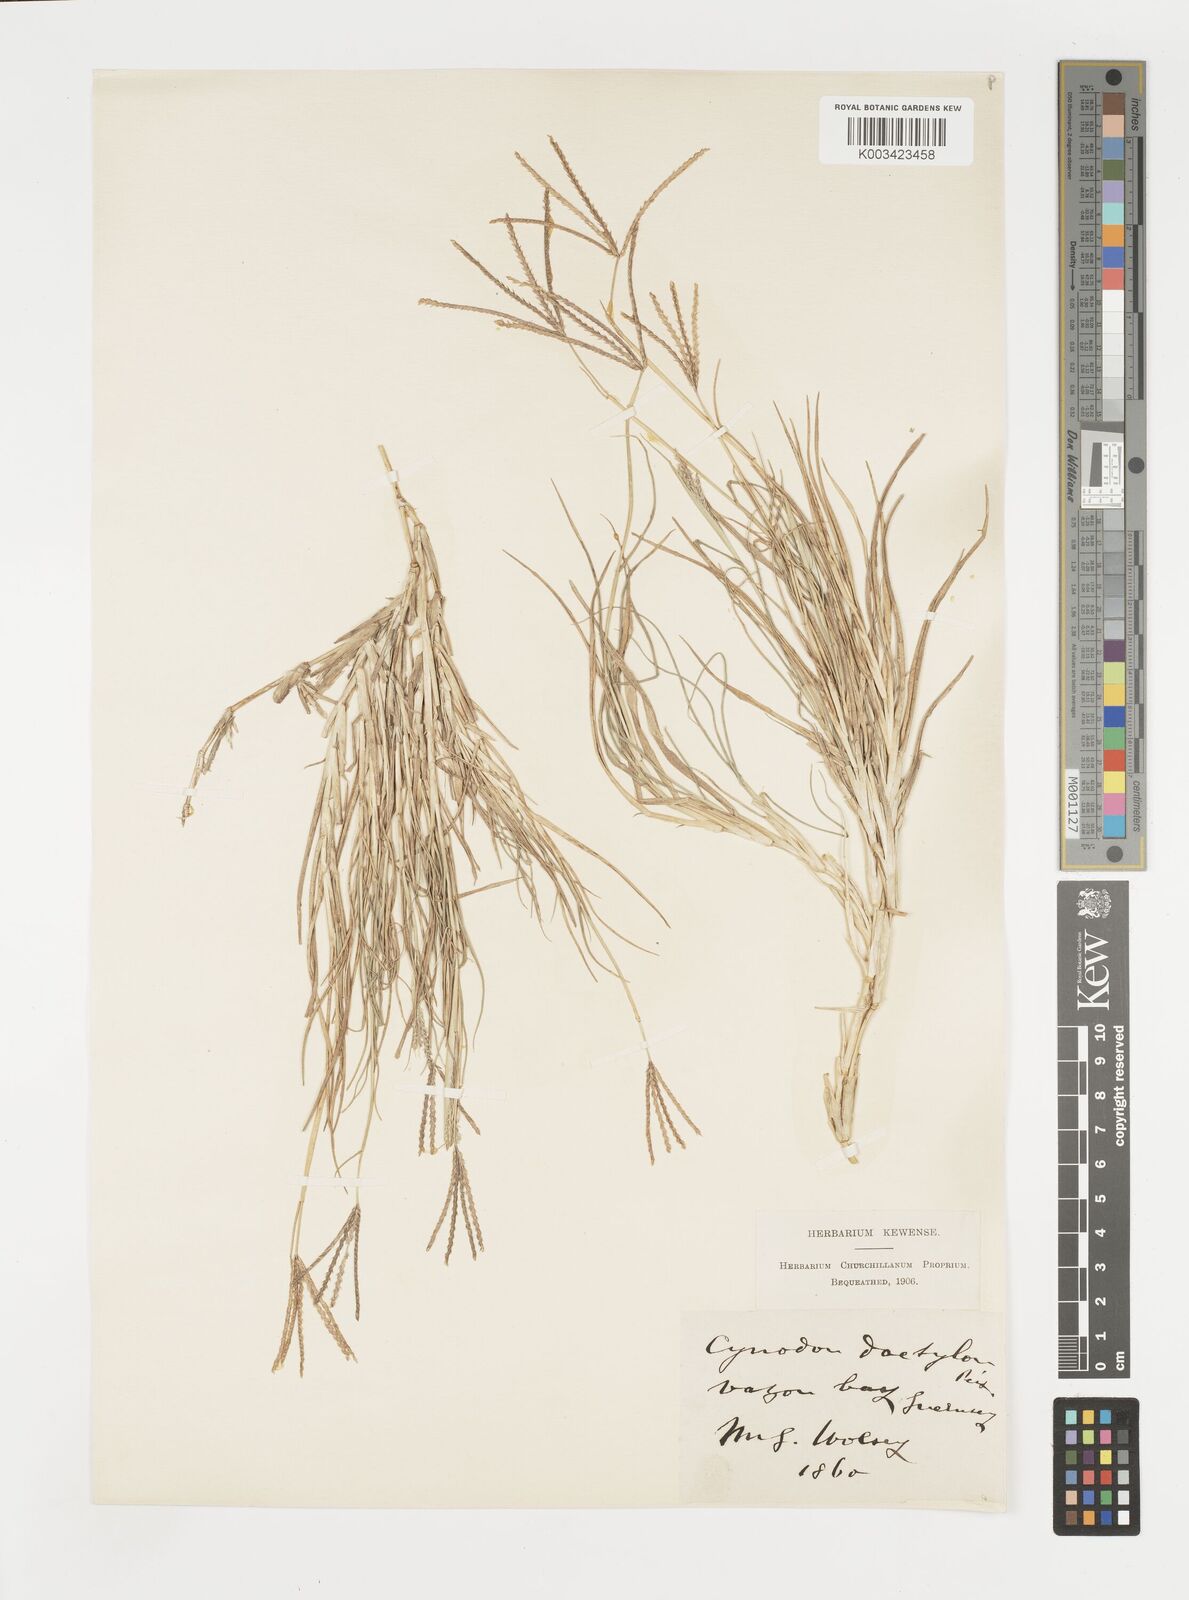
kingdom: Plantae
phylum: Tracheophyta
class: Liliopsida
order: Poales
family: Poaceae
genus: Cynodon
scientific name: Cynodon dactylon
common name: Bermuda grass
